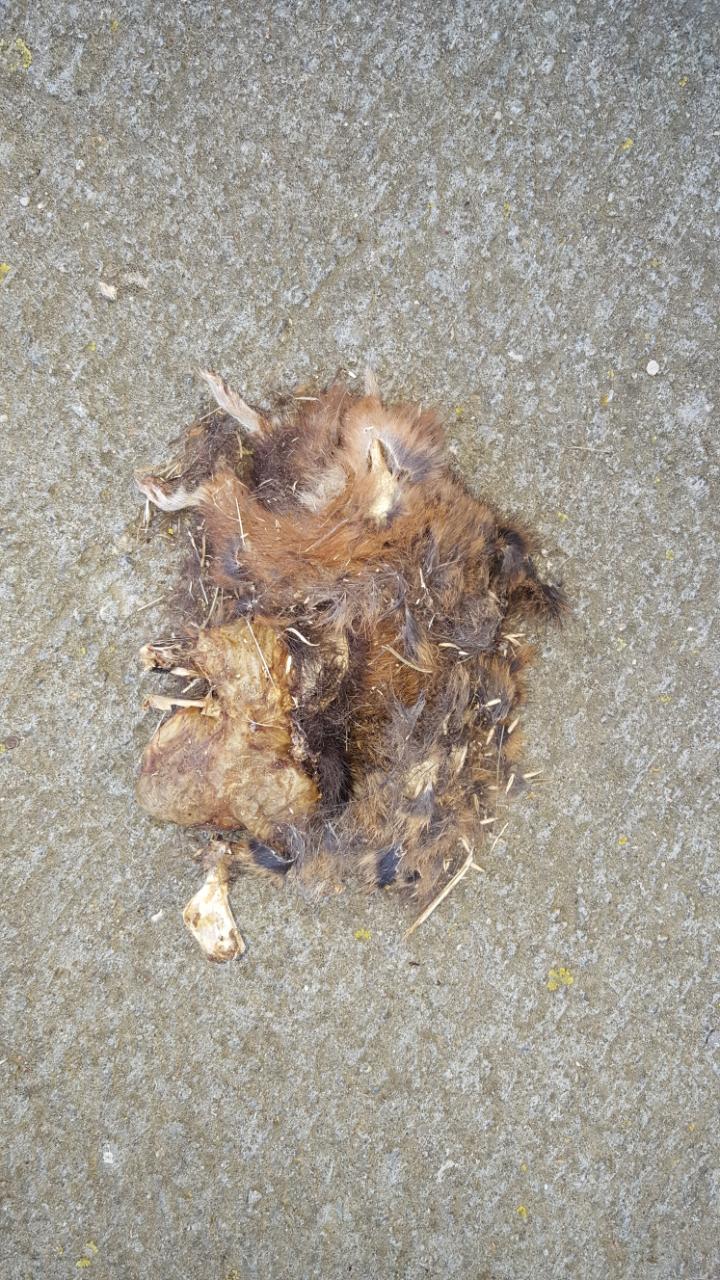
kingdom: Animalia
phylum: Chordata
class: Mammalia
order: Rodentia
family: Cricetidae
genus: Cricetus
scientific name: Cricetus cricetus
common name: Common hamster
